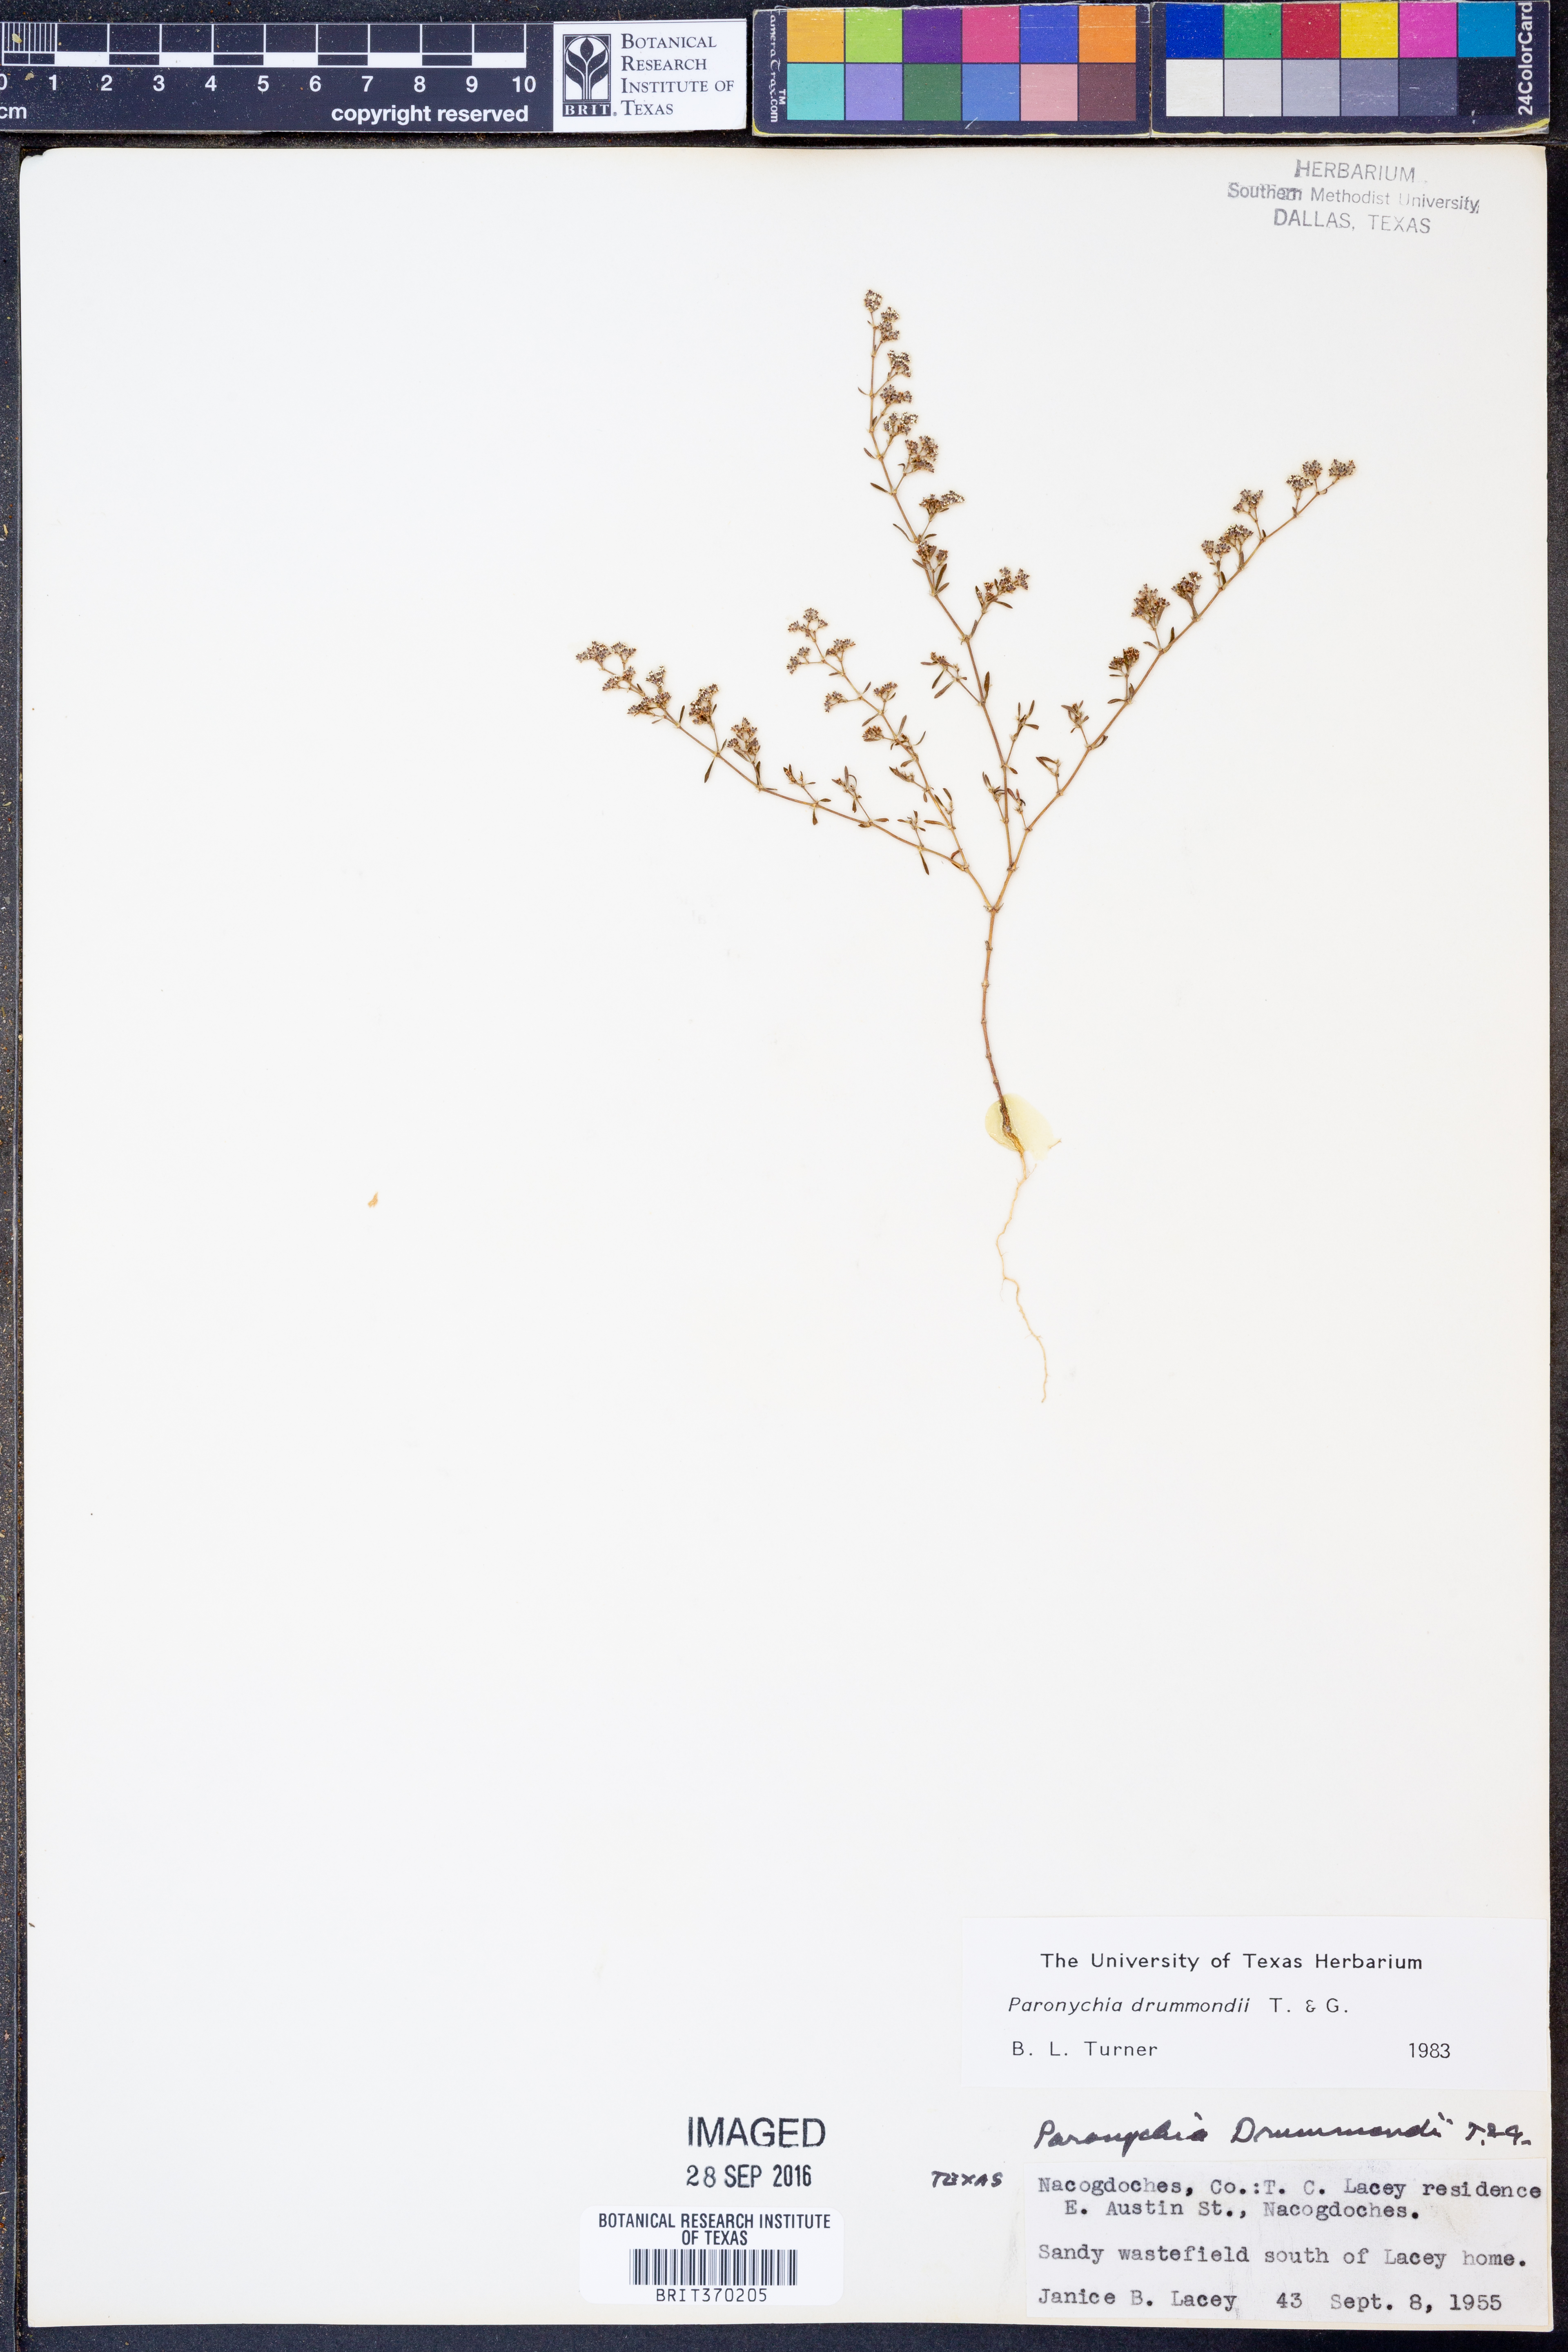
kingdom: Plantae
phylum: Tracheophyta
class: Magnoliopsida
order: Caryophyllales
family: Caryophyllaceae
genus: Paronychia
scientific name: Paronychia drummondii
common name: Drummond's nailwort
